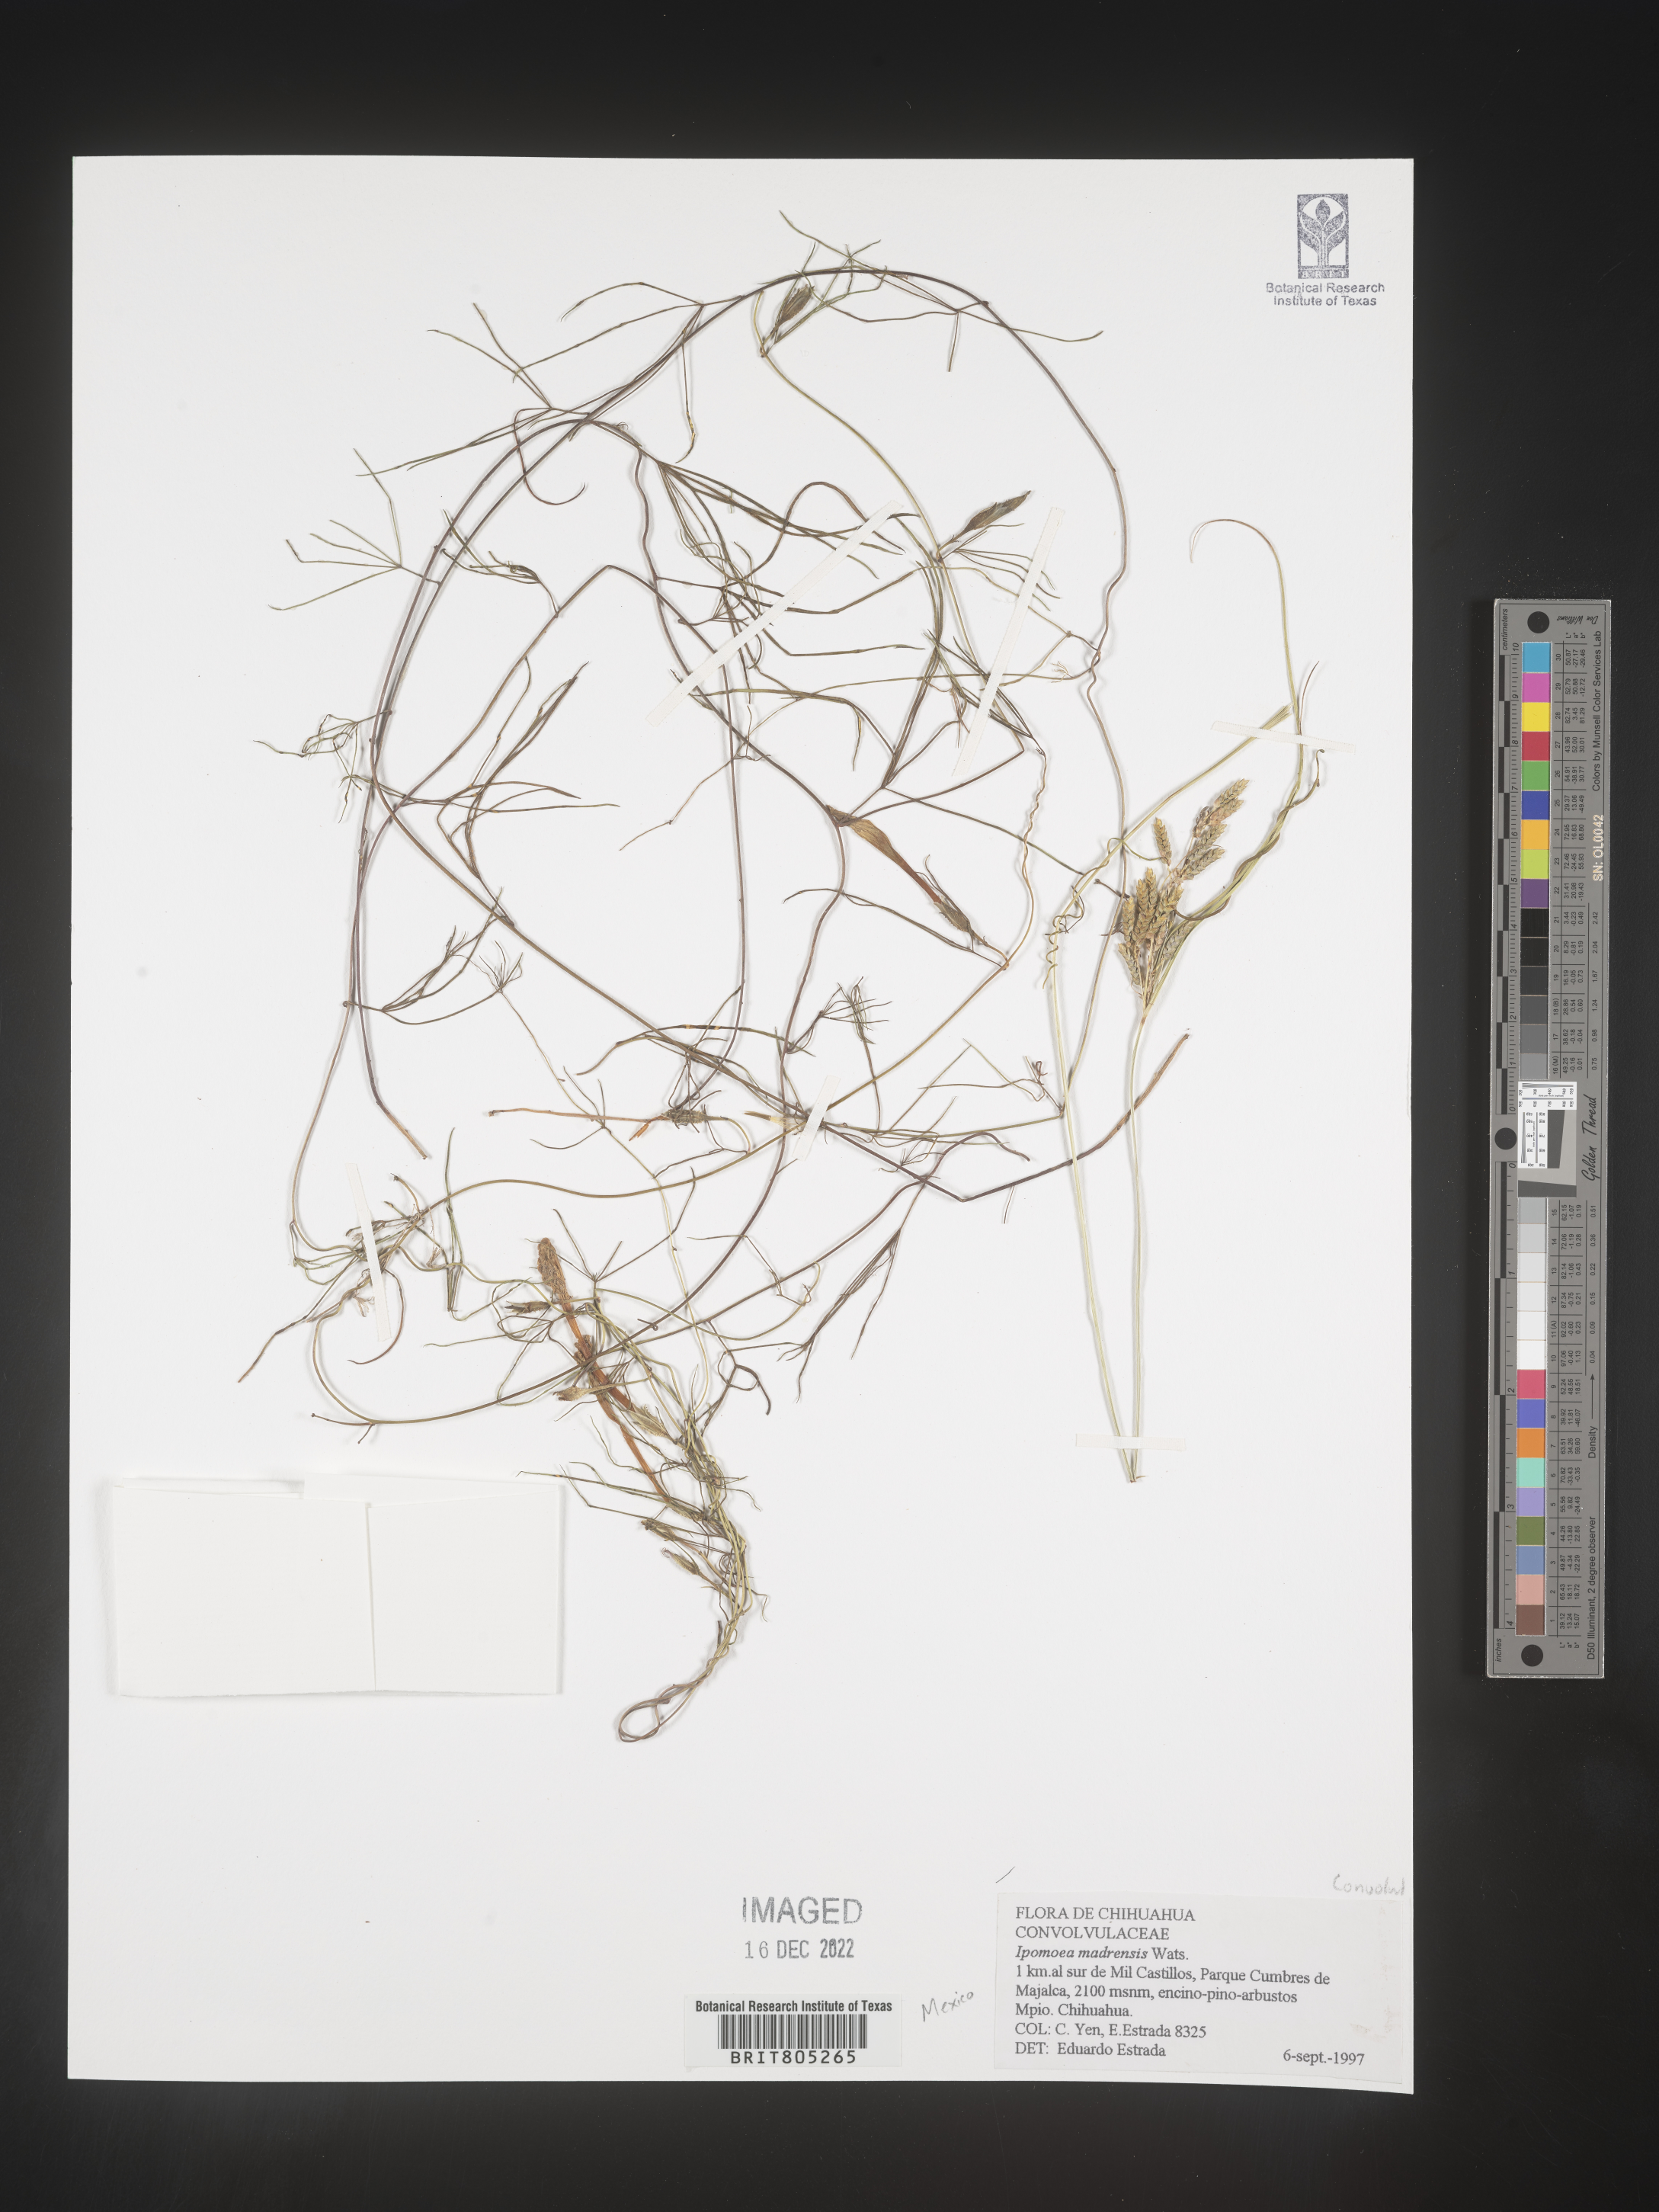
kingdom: Plantae
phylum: Tracheophyta
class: Magnoliopsida
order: Solanales
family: Convolvulaceae
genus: Ipomoea
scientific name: Ipomoea
